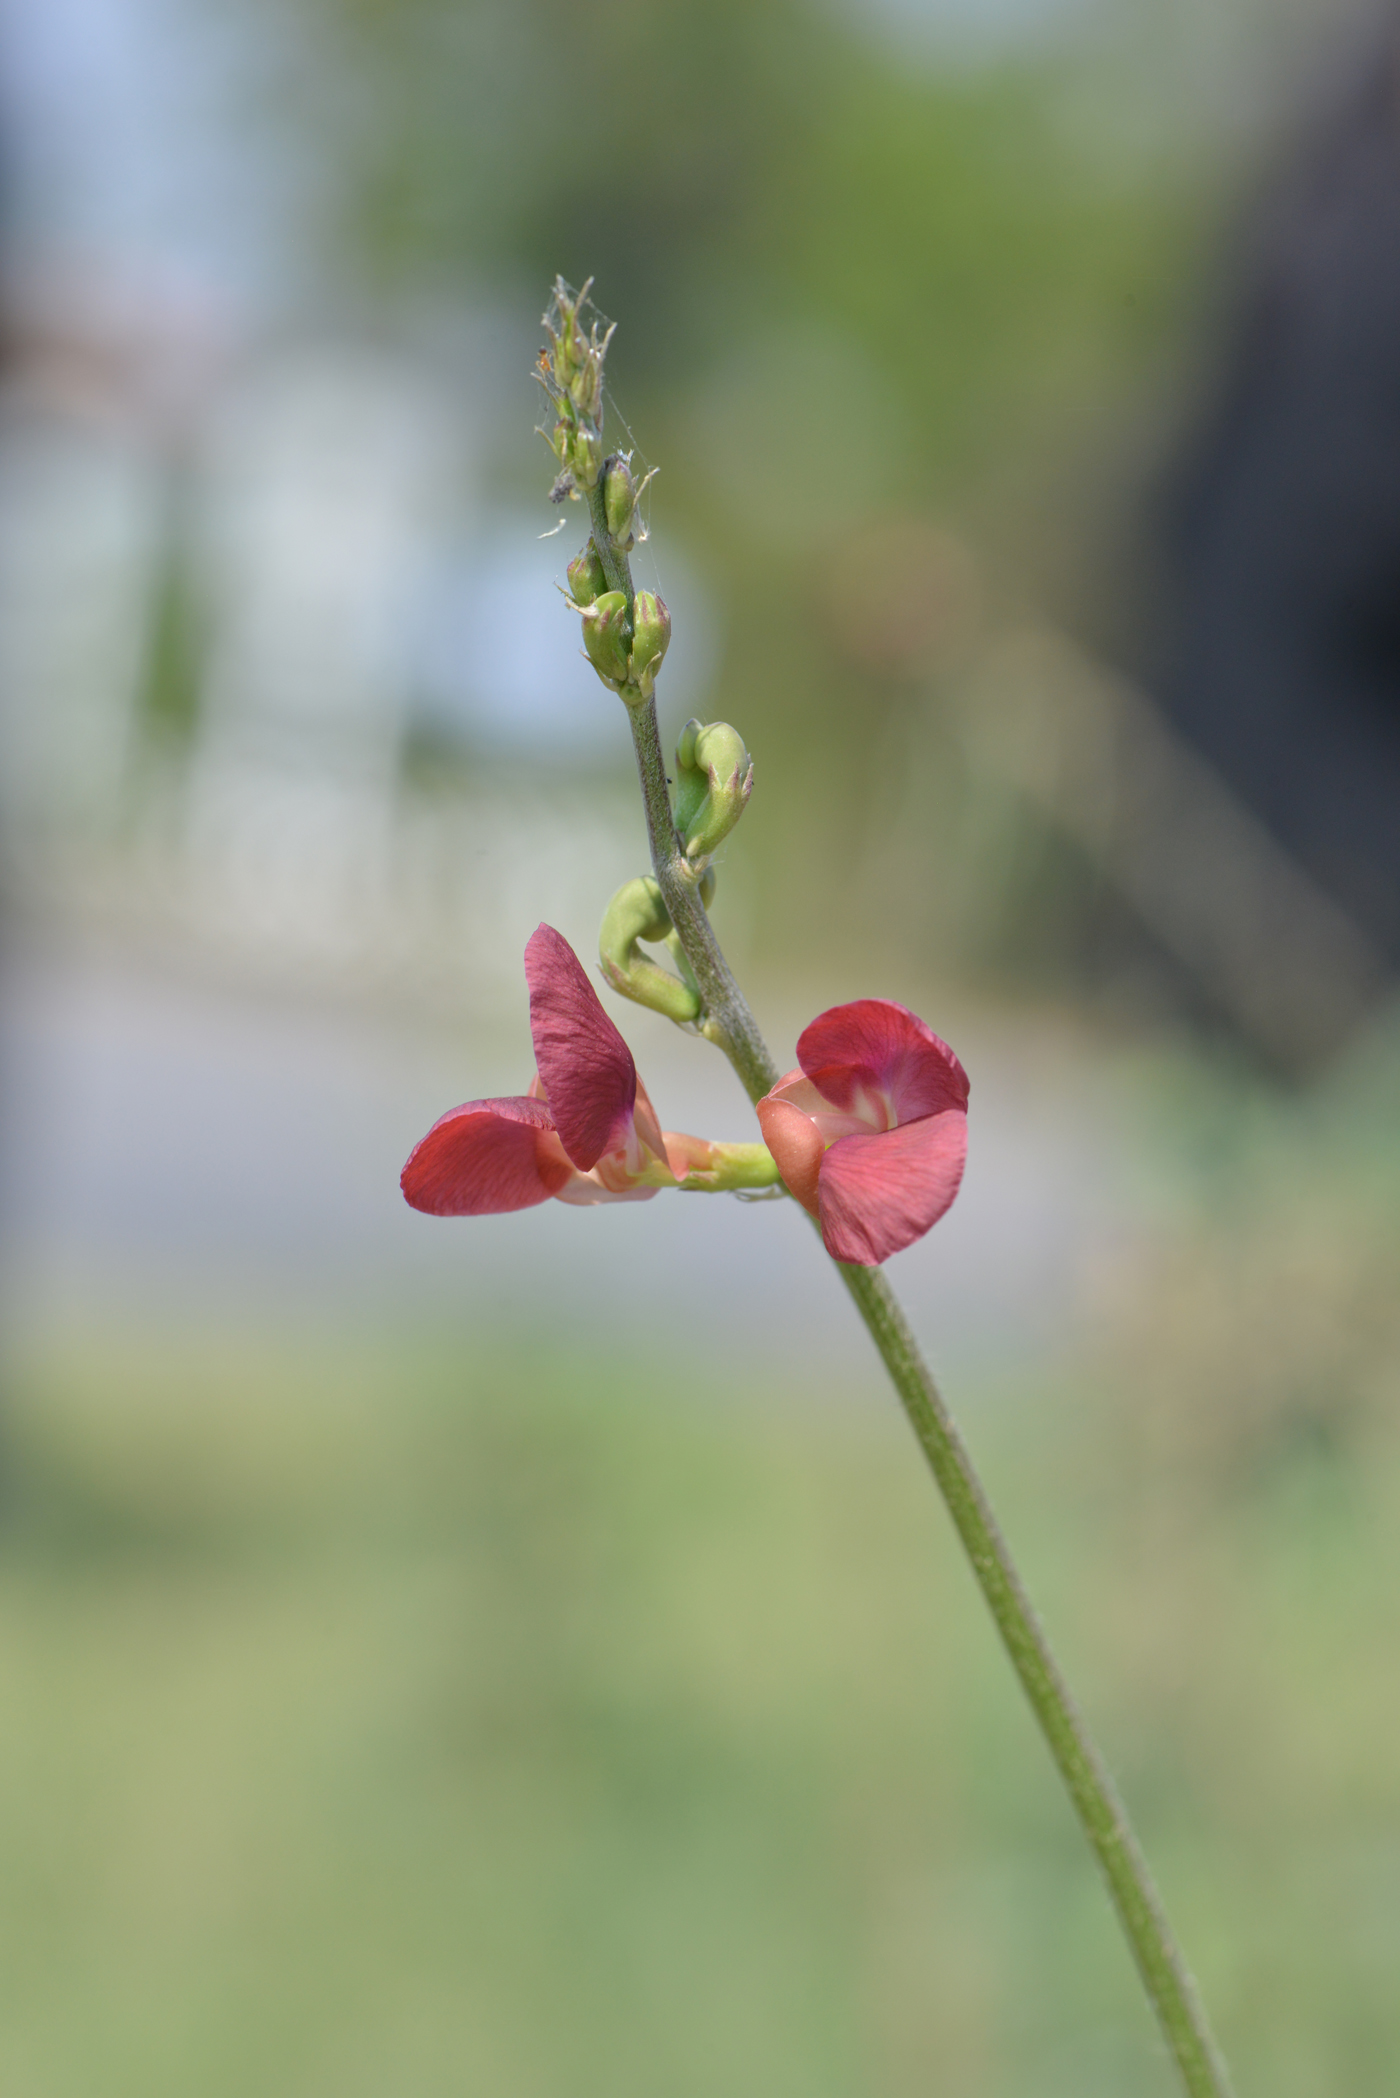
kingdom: Plantae
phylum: Tracheophyta
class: Magnoliopsida
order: Fabales
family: Fabaceae
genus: Macroptilium
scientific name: Macroptilium lathyroides
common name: Wild bushbean
